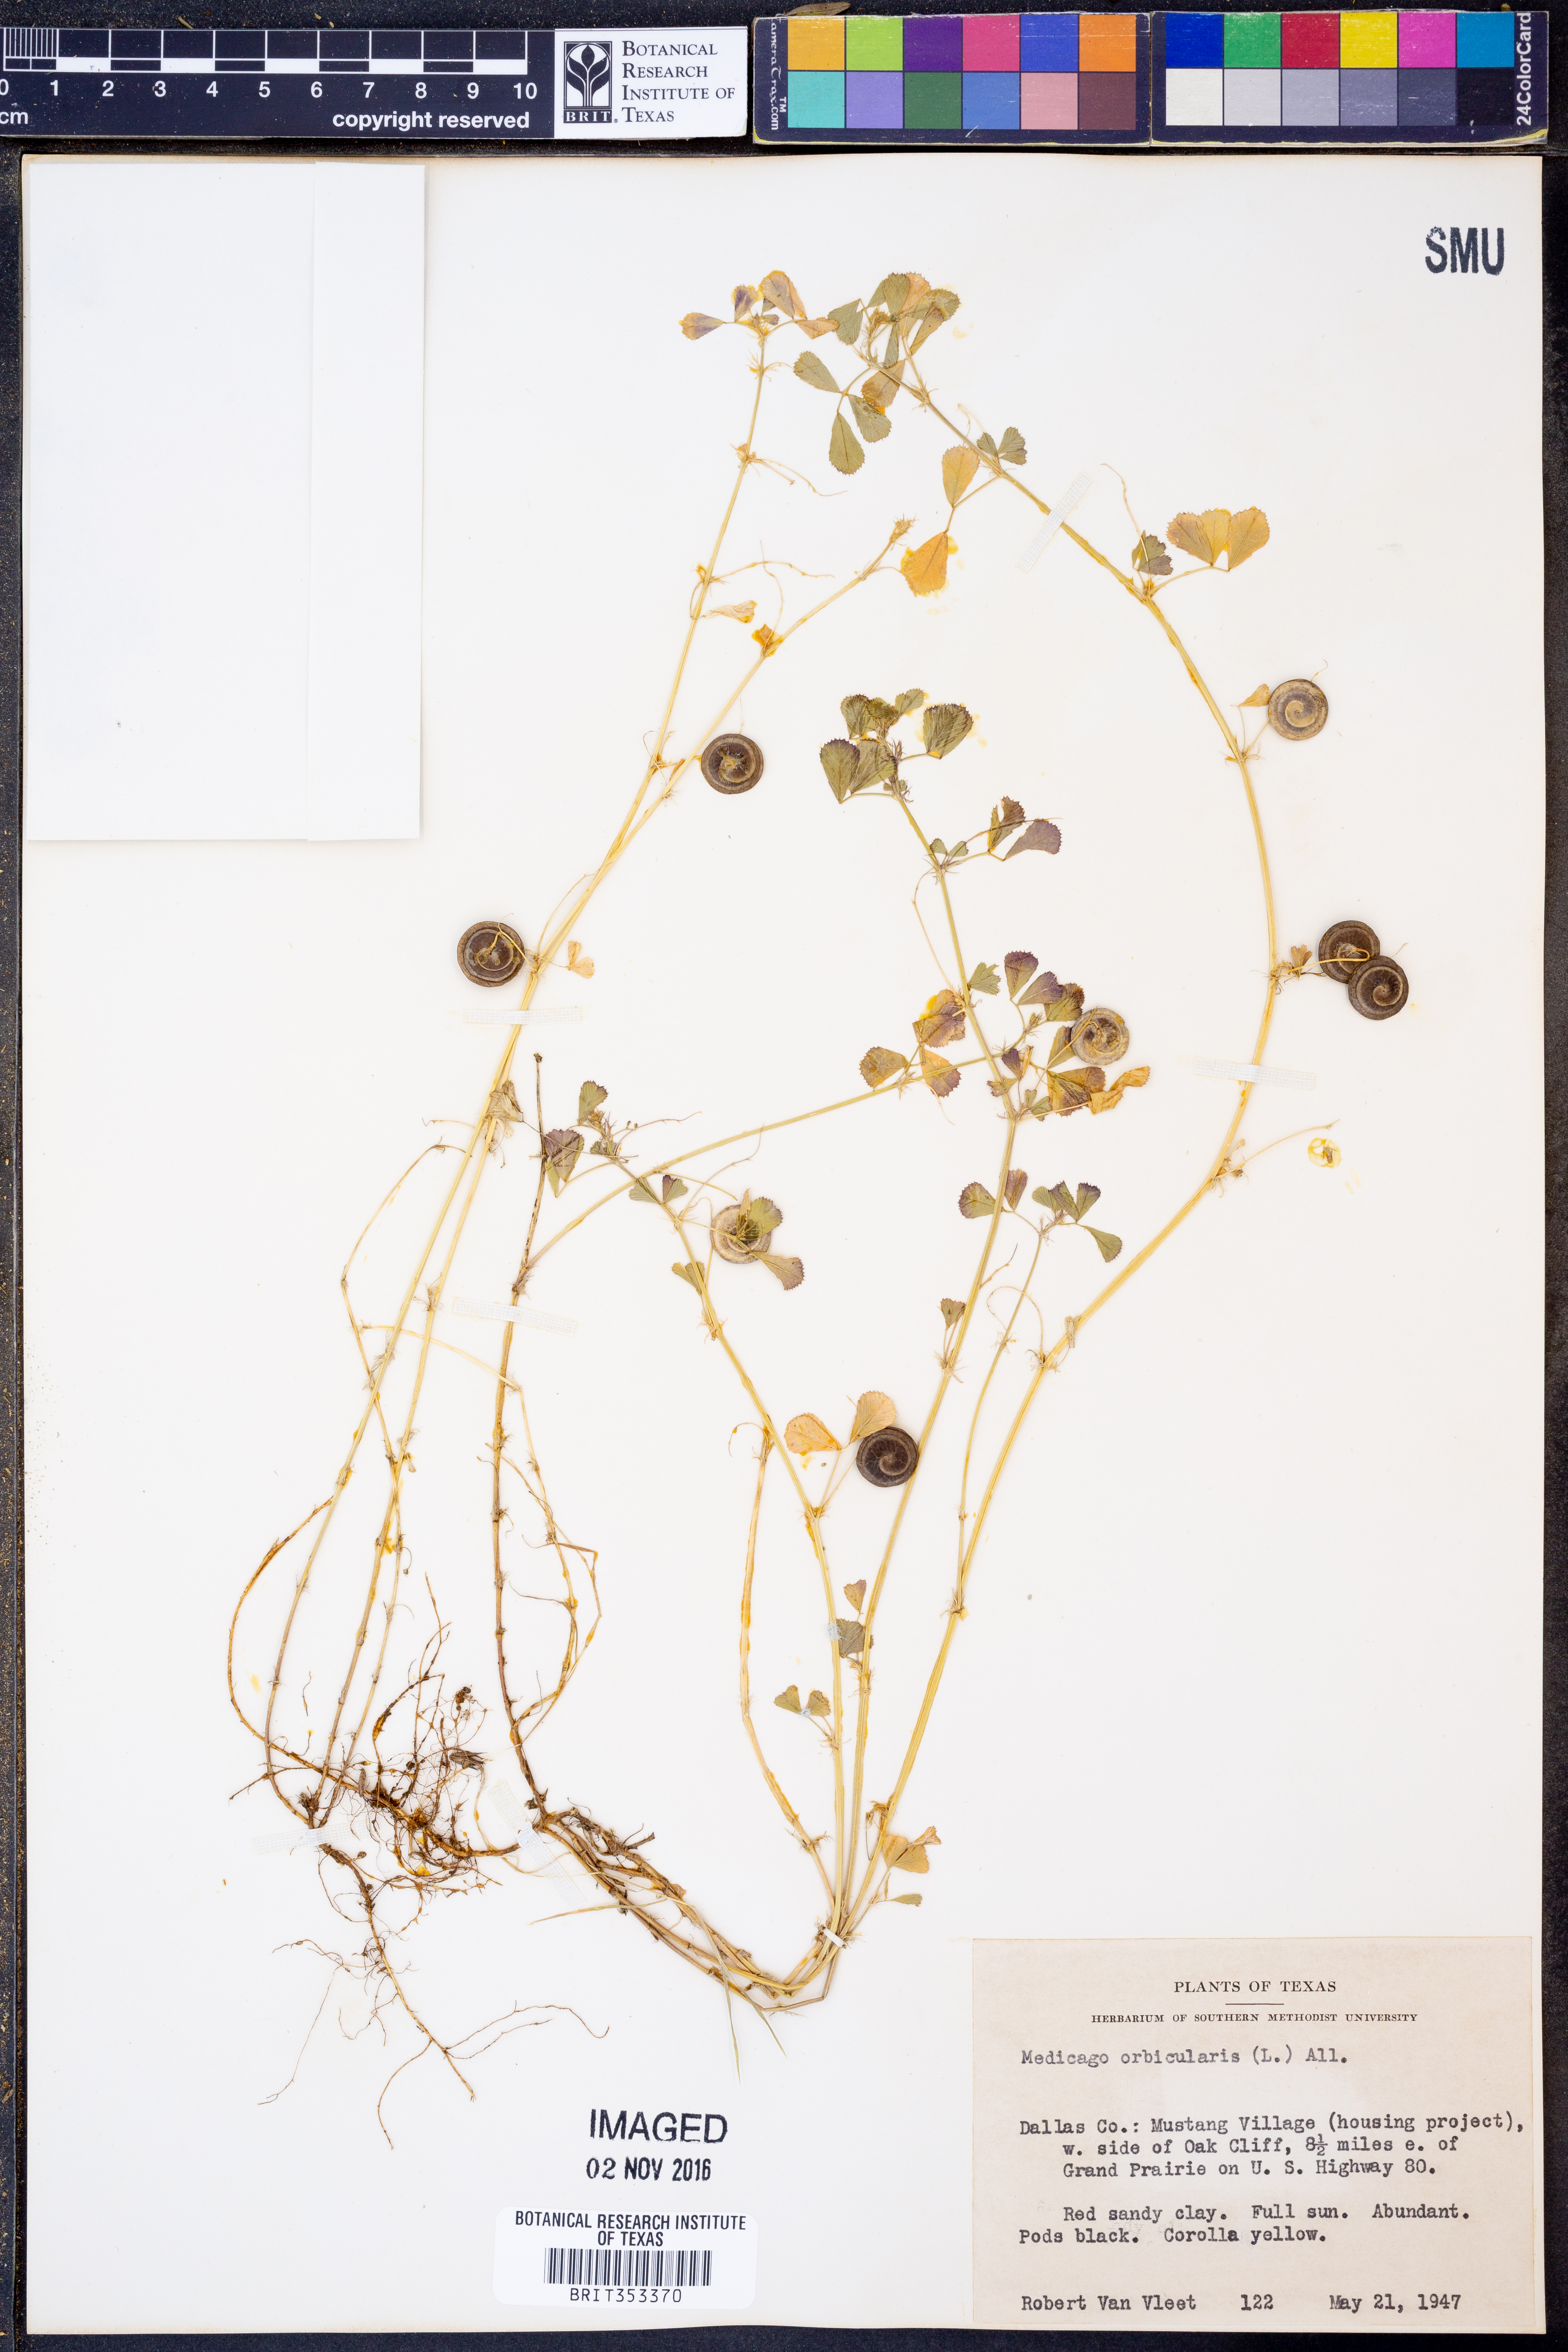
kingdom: Plantae
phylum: Tracheophyta
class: Magnoliopsida
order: Fabales
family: Fabaceae
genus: Medicago
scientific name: Medicago orbicularis
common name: Button medick
